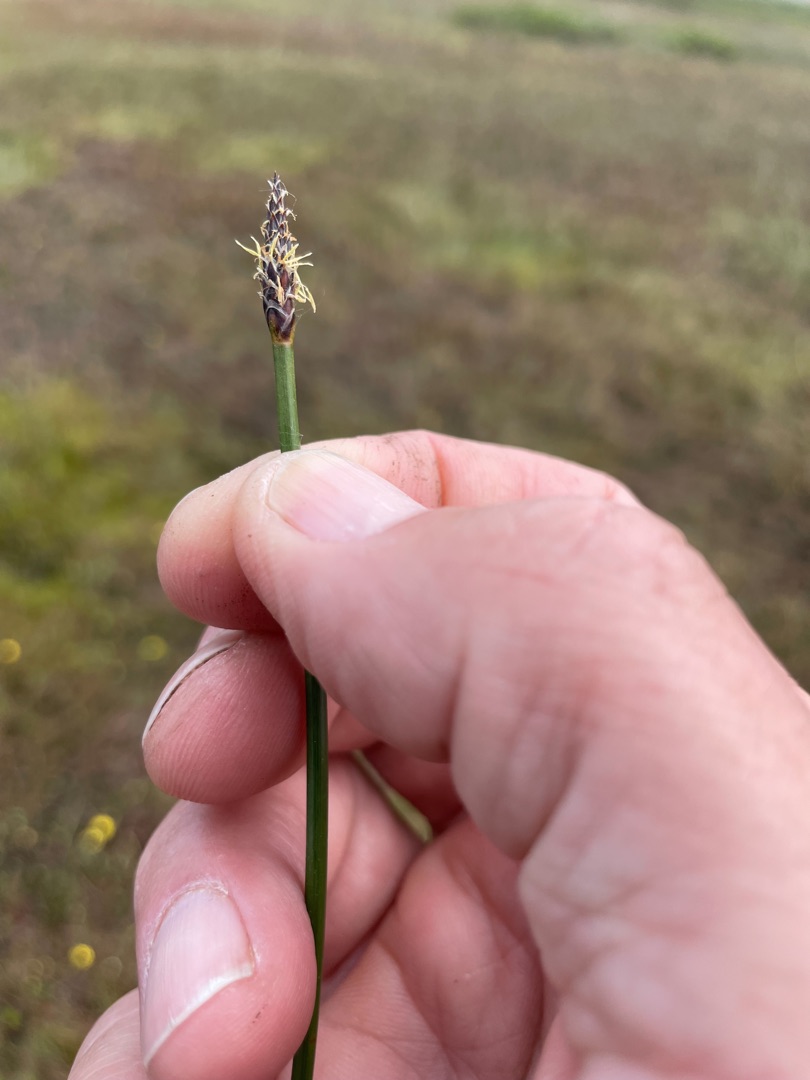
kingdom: Plantae
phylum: Tracheophyta
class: Liliopsida
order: Poales
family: Cyperaceae
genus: Eleocharis
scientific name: Eleocharis palustris
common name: Almindelig sumpstrå
